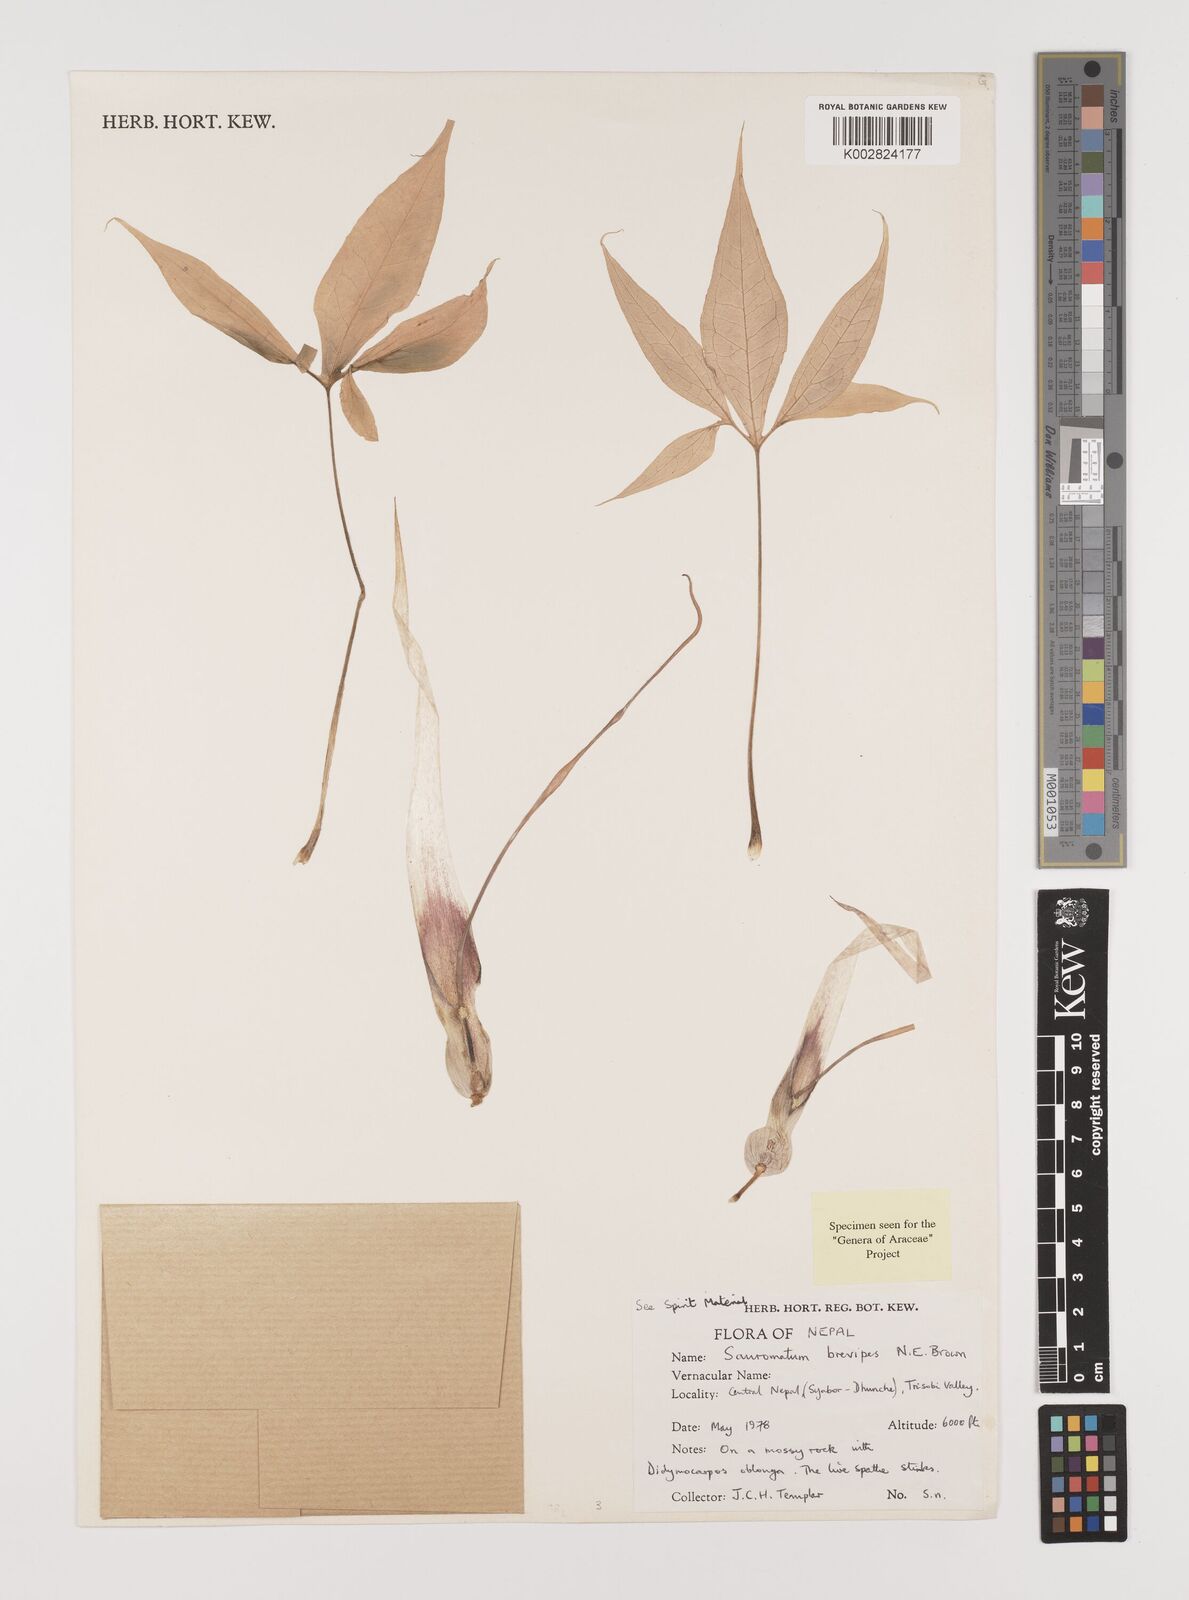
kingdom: Plantae
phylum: Tracheophyta
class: Liliopsida
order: Alismatales
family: Araceae
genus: Sauromatum
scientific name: Sauromatum brevipes
